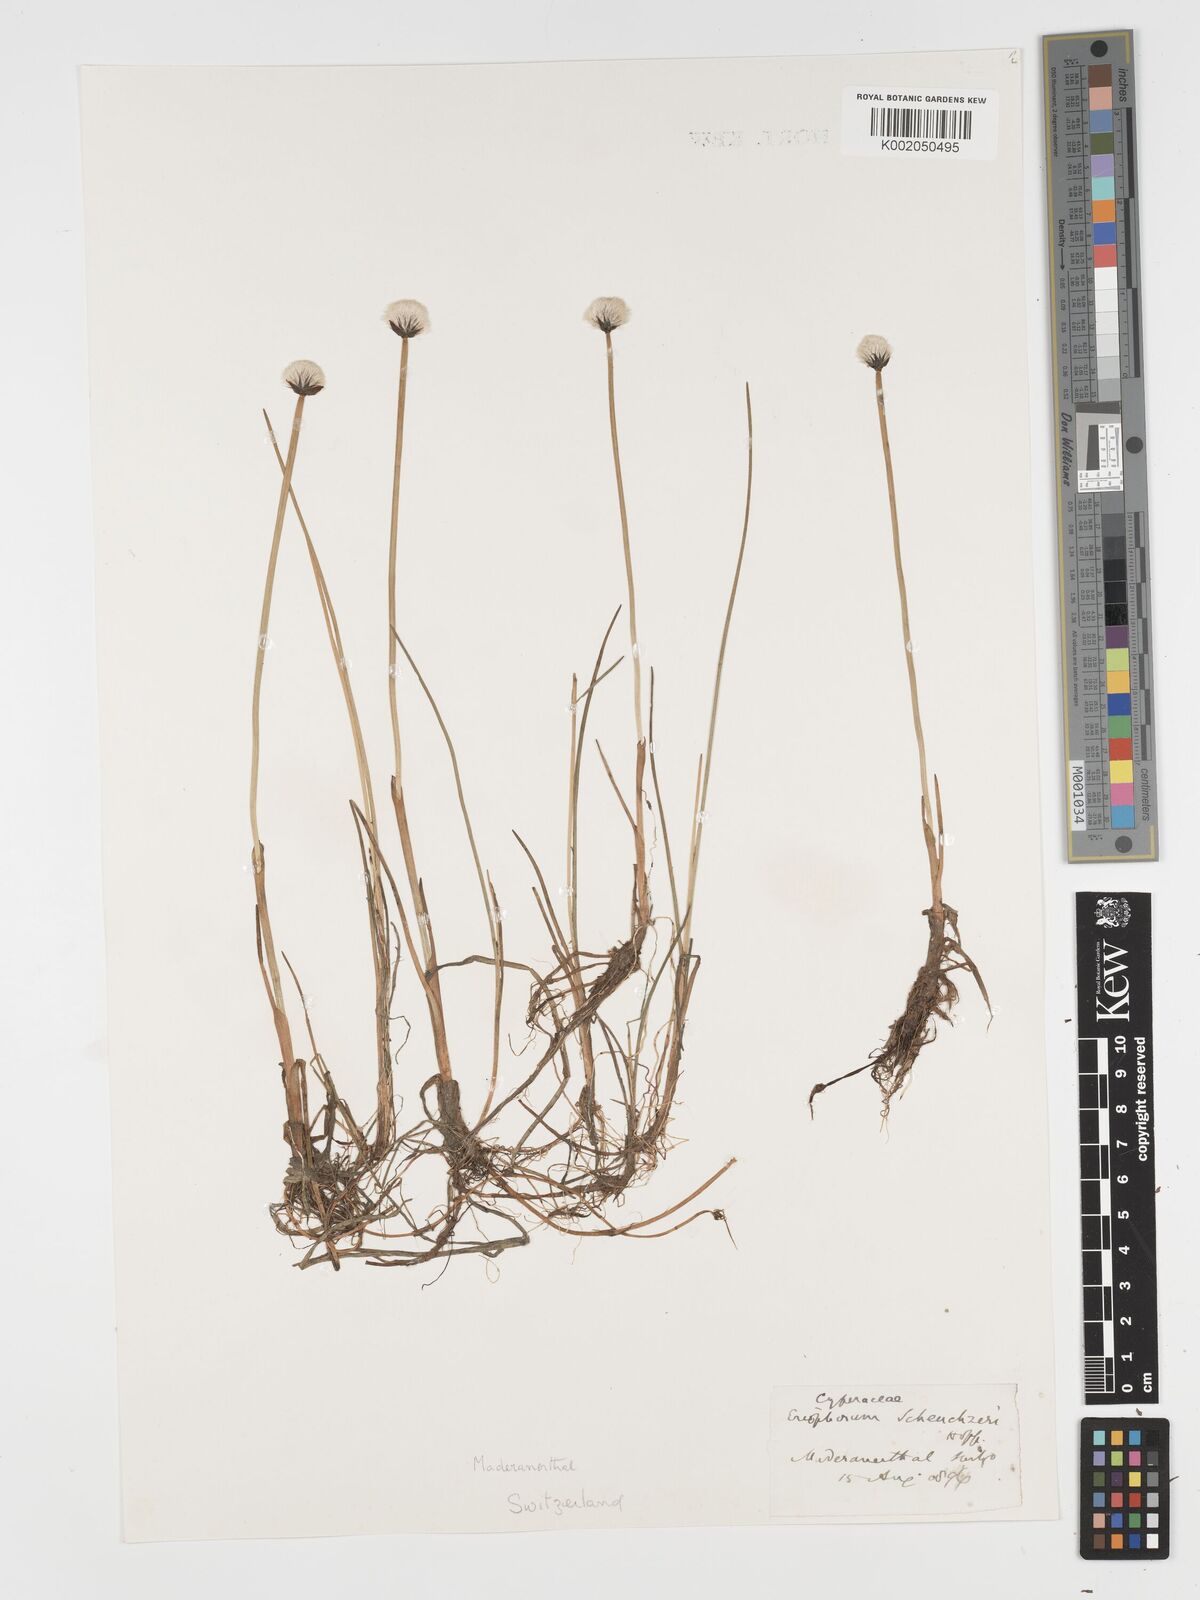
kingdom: Plantae
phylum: Tracheophyta
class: Liliopsida
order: Poales
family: Cyperaceae
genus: Eriophorum
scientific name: Eriophorum scheuchzeri
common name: Scheuchzer's cottongrass
